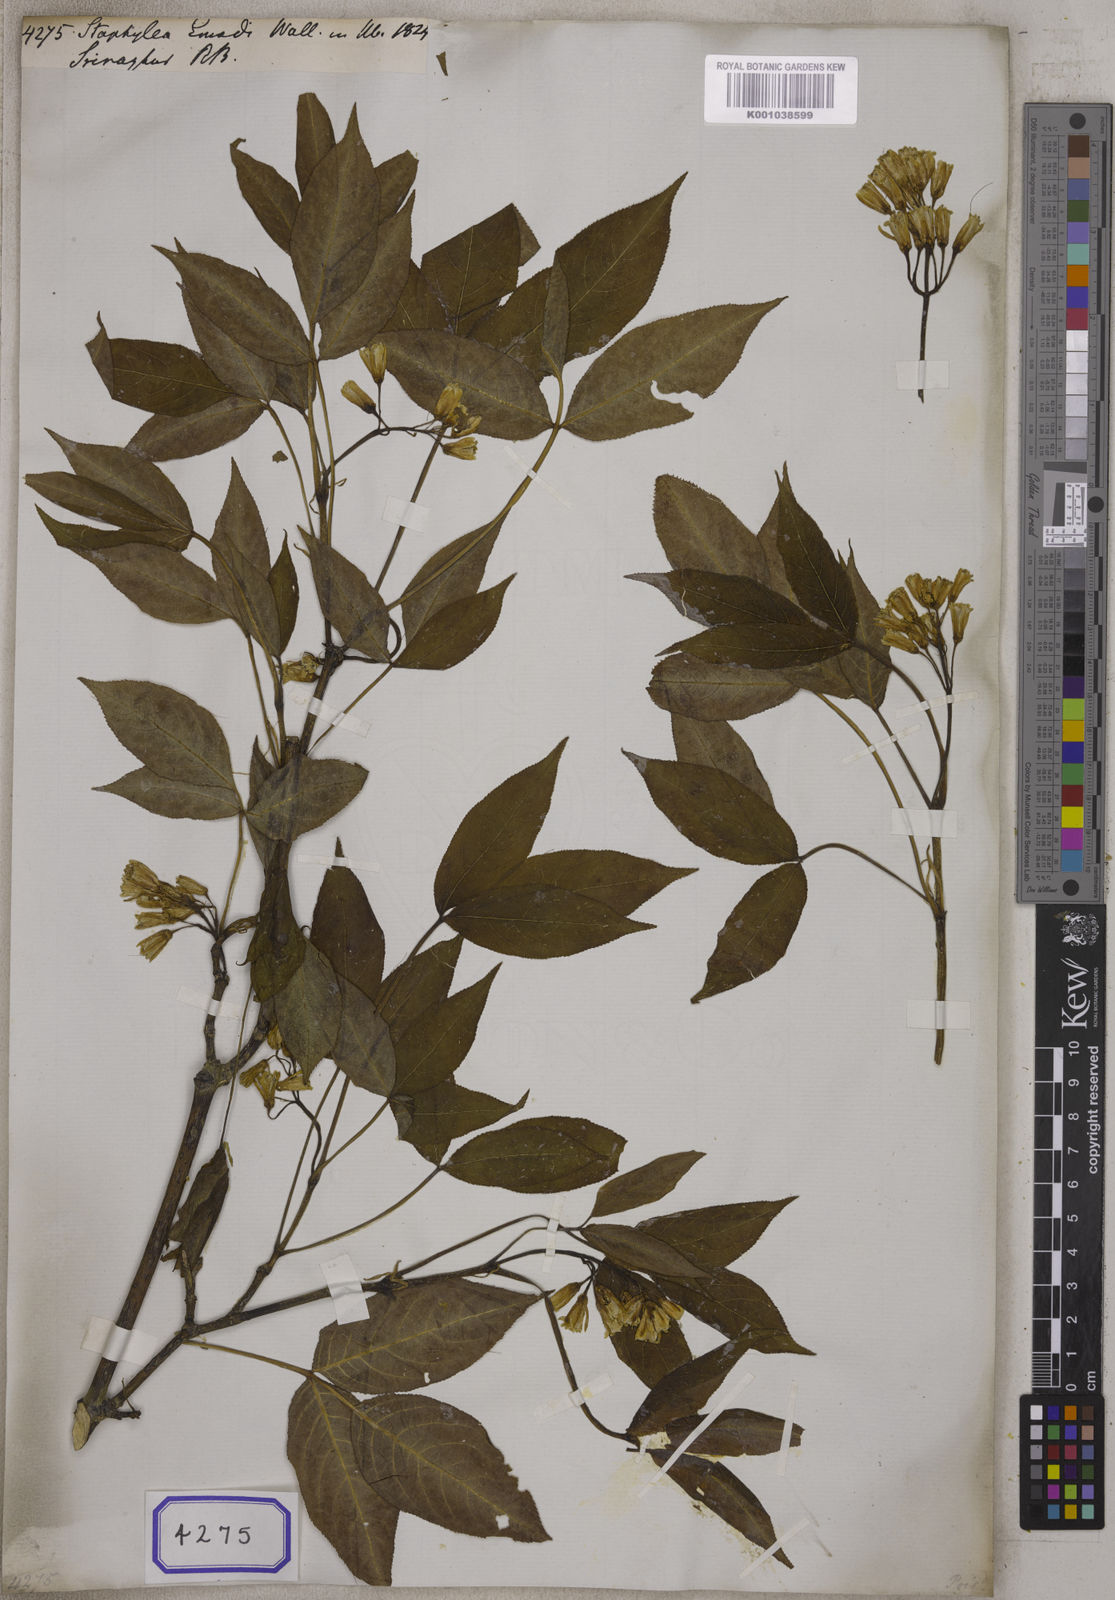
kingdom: Plantae
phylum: Tracheophyta
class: Magnoliopsida
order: Crossosomatales
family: Staphyleaceae
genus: Staphylea
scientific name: Staphylea
